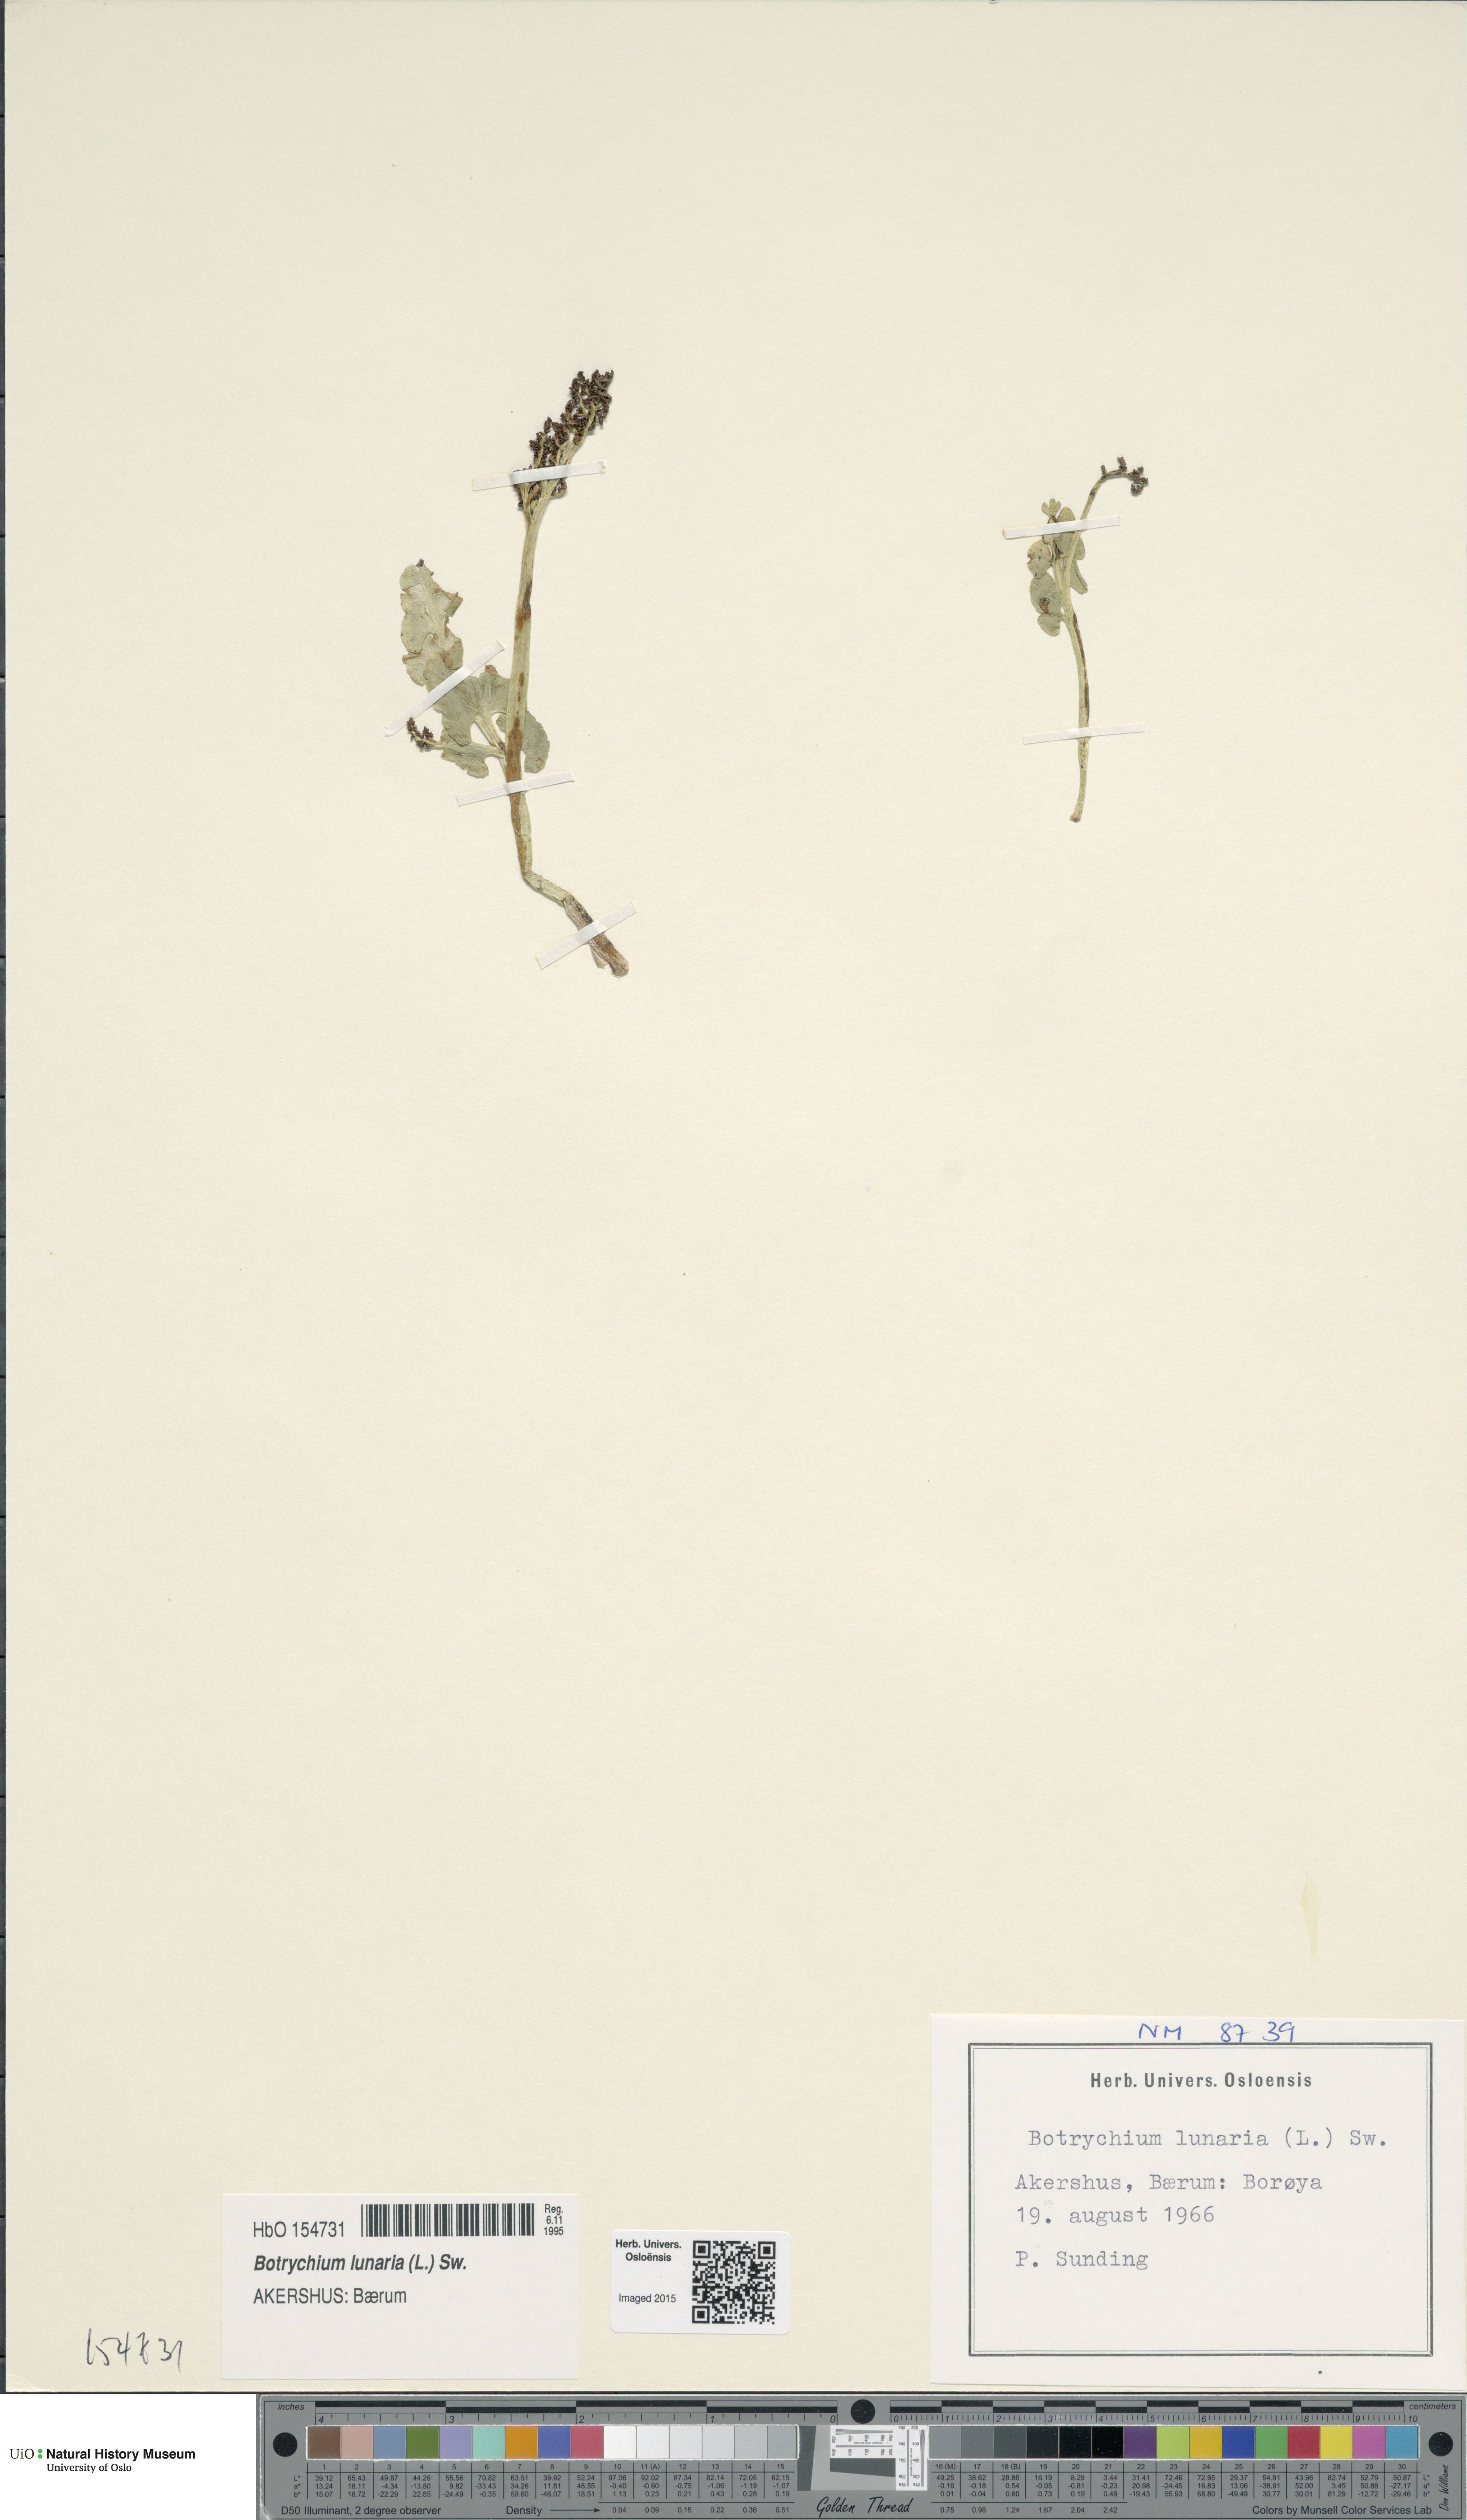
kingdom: Plantae
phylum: Tracheophyta
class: Polypodiopsida
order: Ophioglossales
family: Ophioglossaceae
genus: Botrychium
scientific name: Botrychium lunaria
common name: Moonwort
